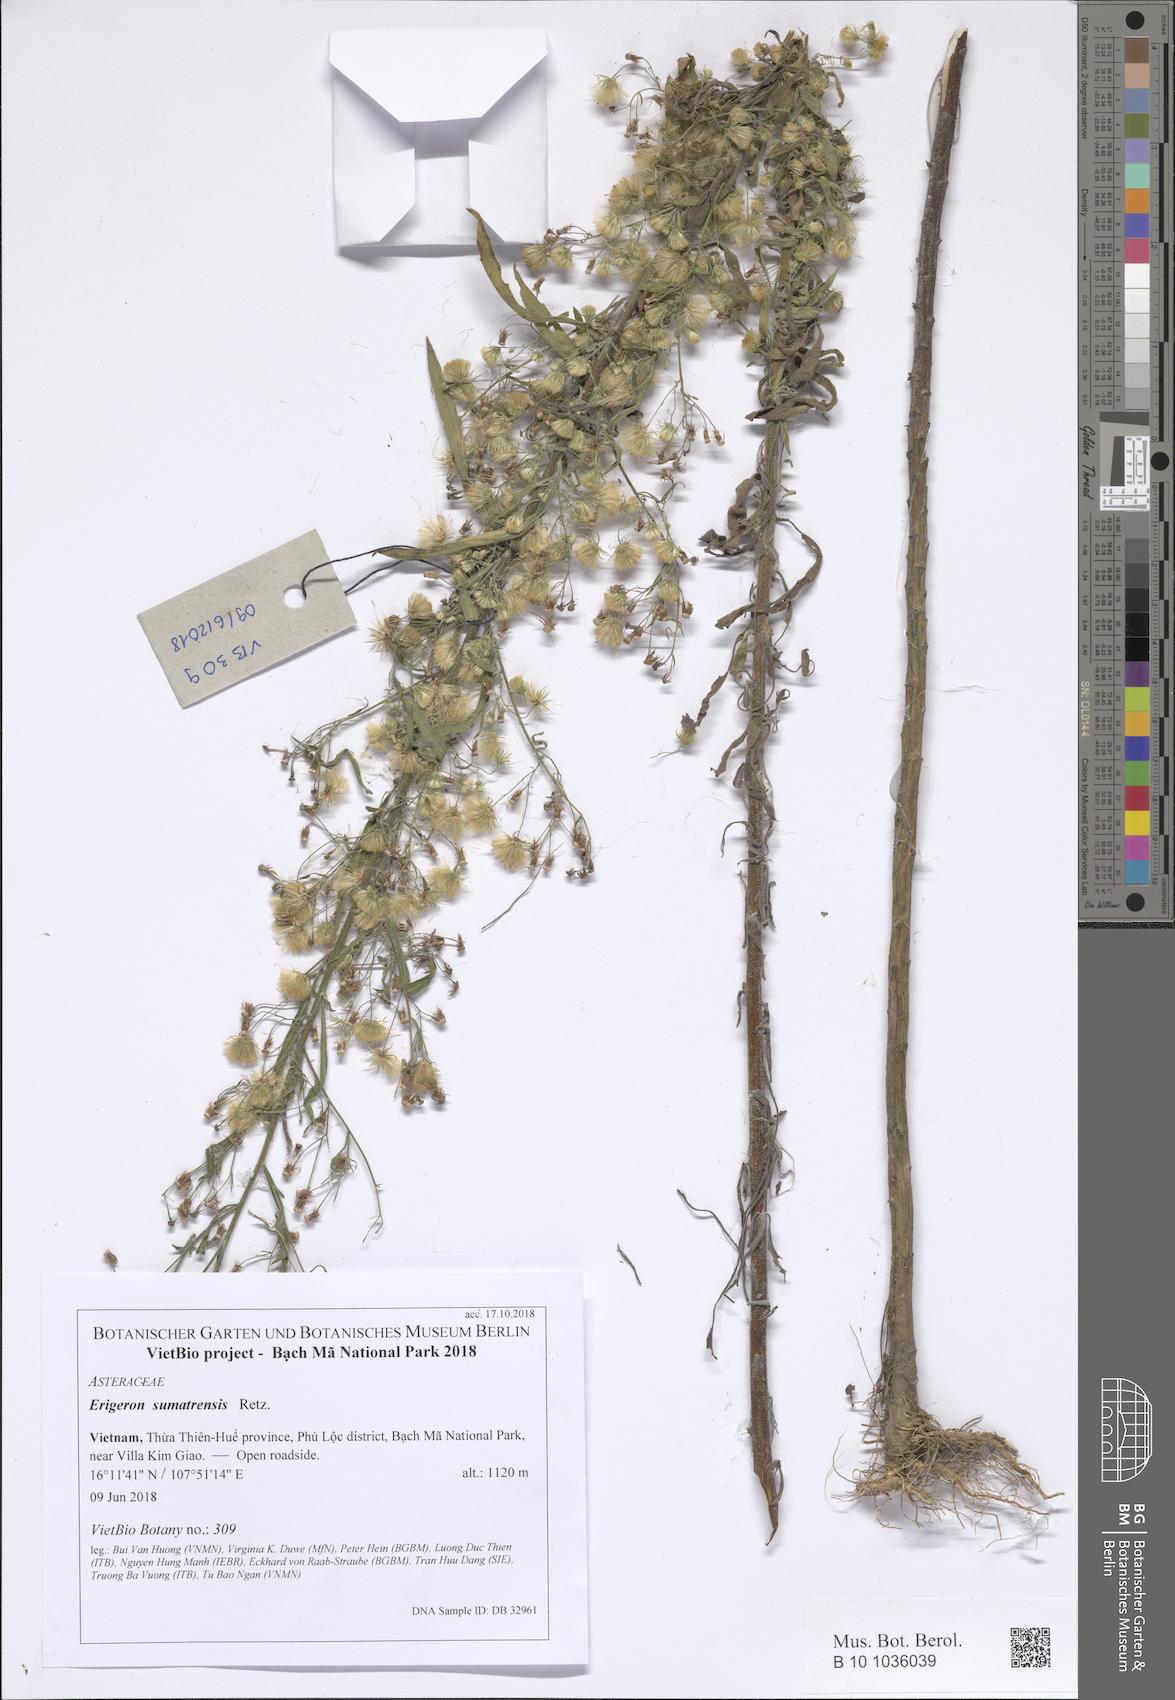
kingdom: Plantae
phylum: Tracheophyta
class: Magnoliopsida
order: Asterales
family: Asteraceae
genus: Erigeron
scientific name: Erigeron sumatrensis
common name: Daisy
